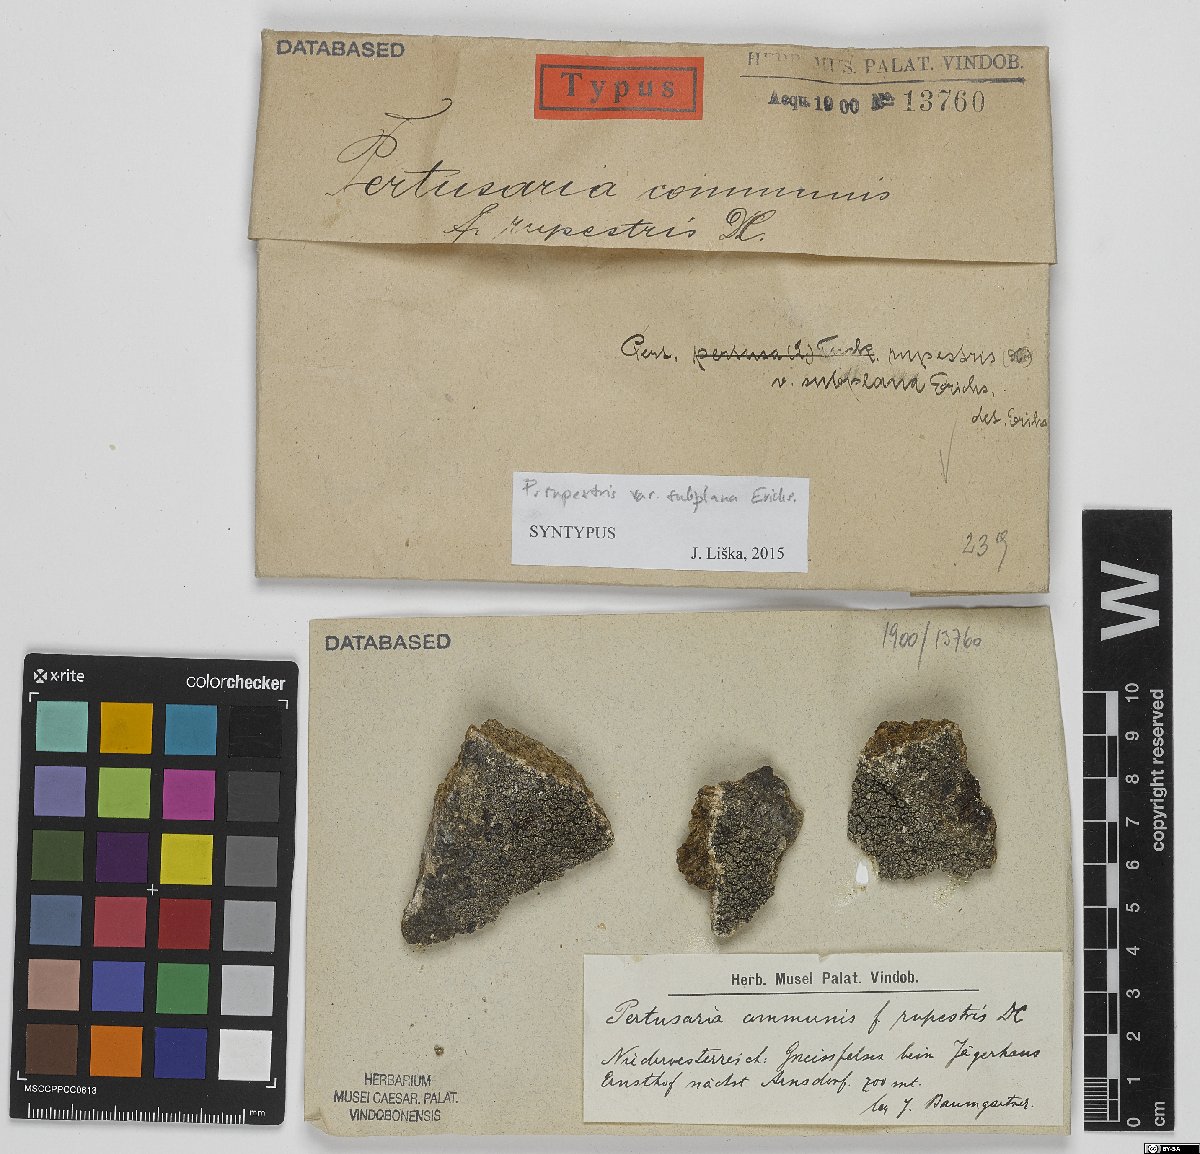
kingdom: Fungi
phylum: Ascomycota
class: Lecanoromycetes
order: Pertusariales
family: Pertusariaceae
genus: Pertusaria
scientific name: Pertusaria pertusa
